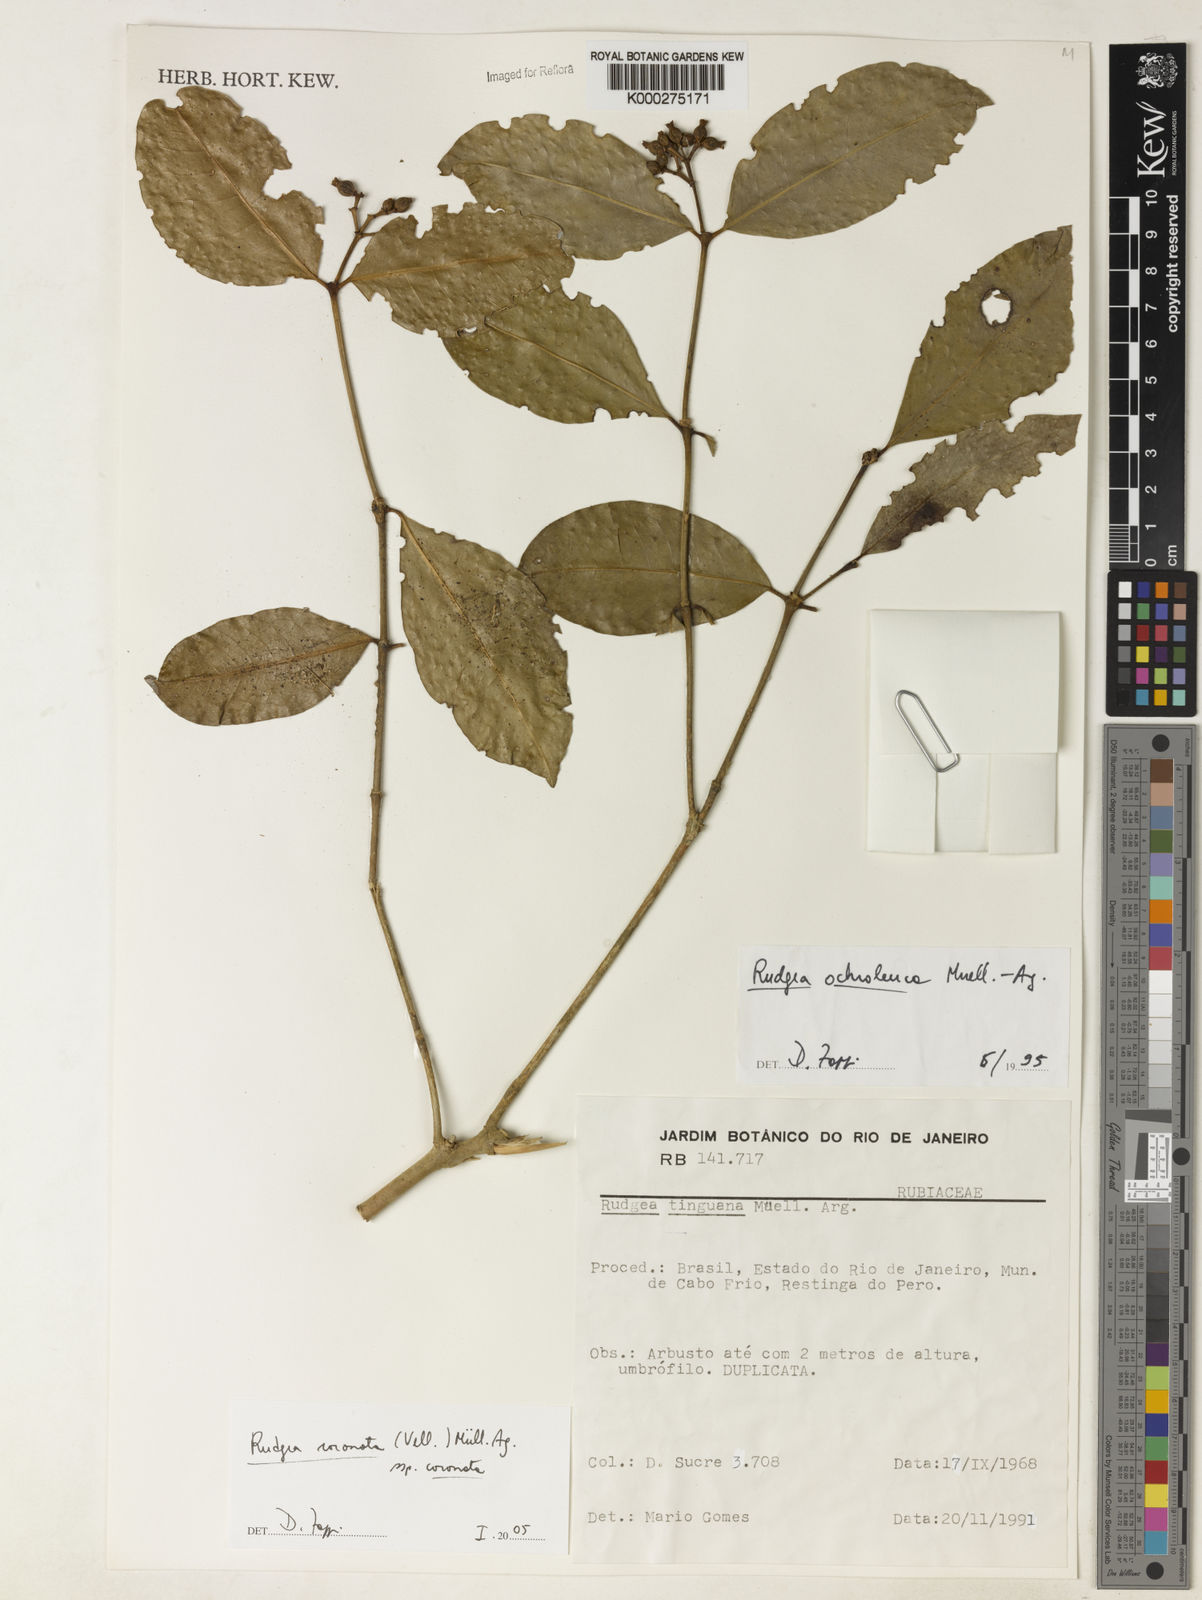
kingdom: Plantae
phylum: Tracheophyta
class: Magnoliopsida
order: Gentianales
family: Rubiaceae
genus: Rudgea
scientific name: Rudgea coronata
